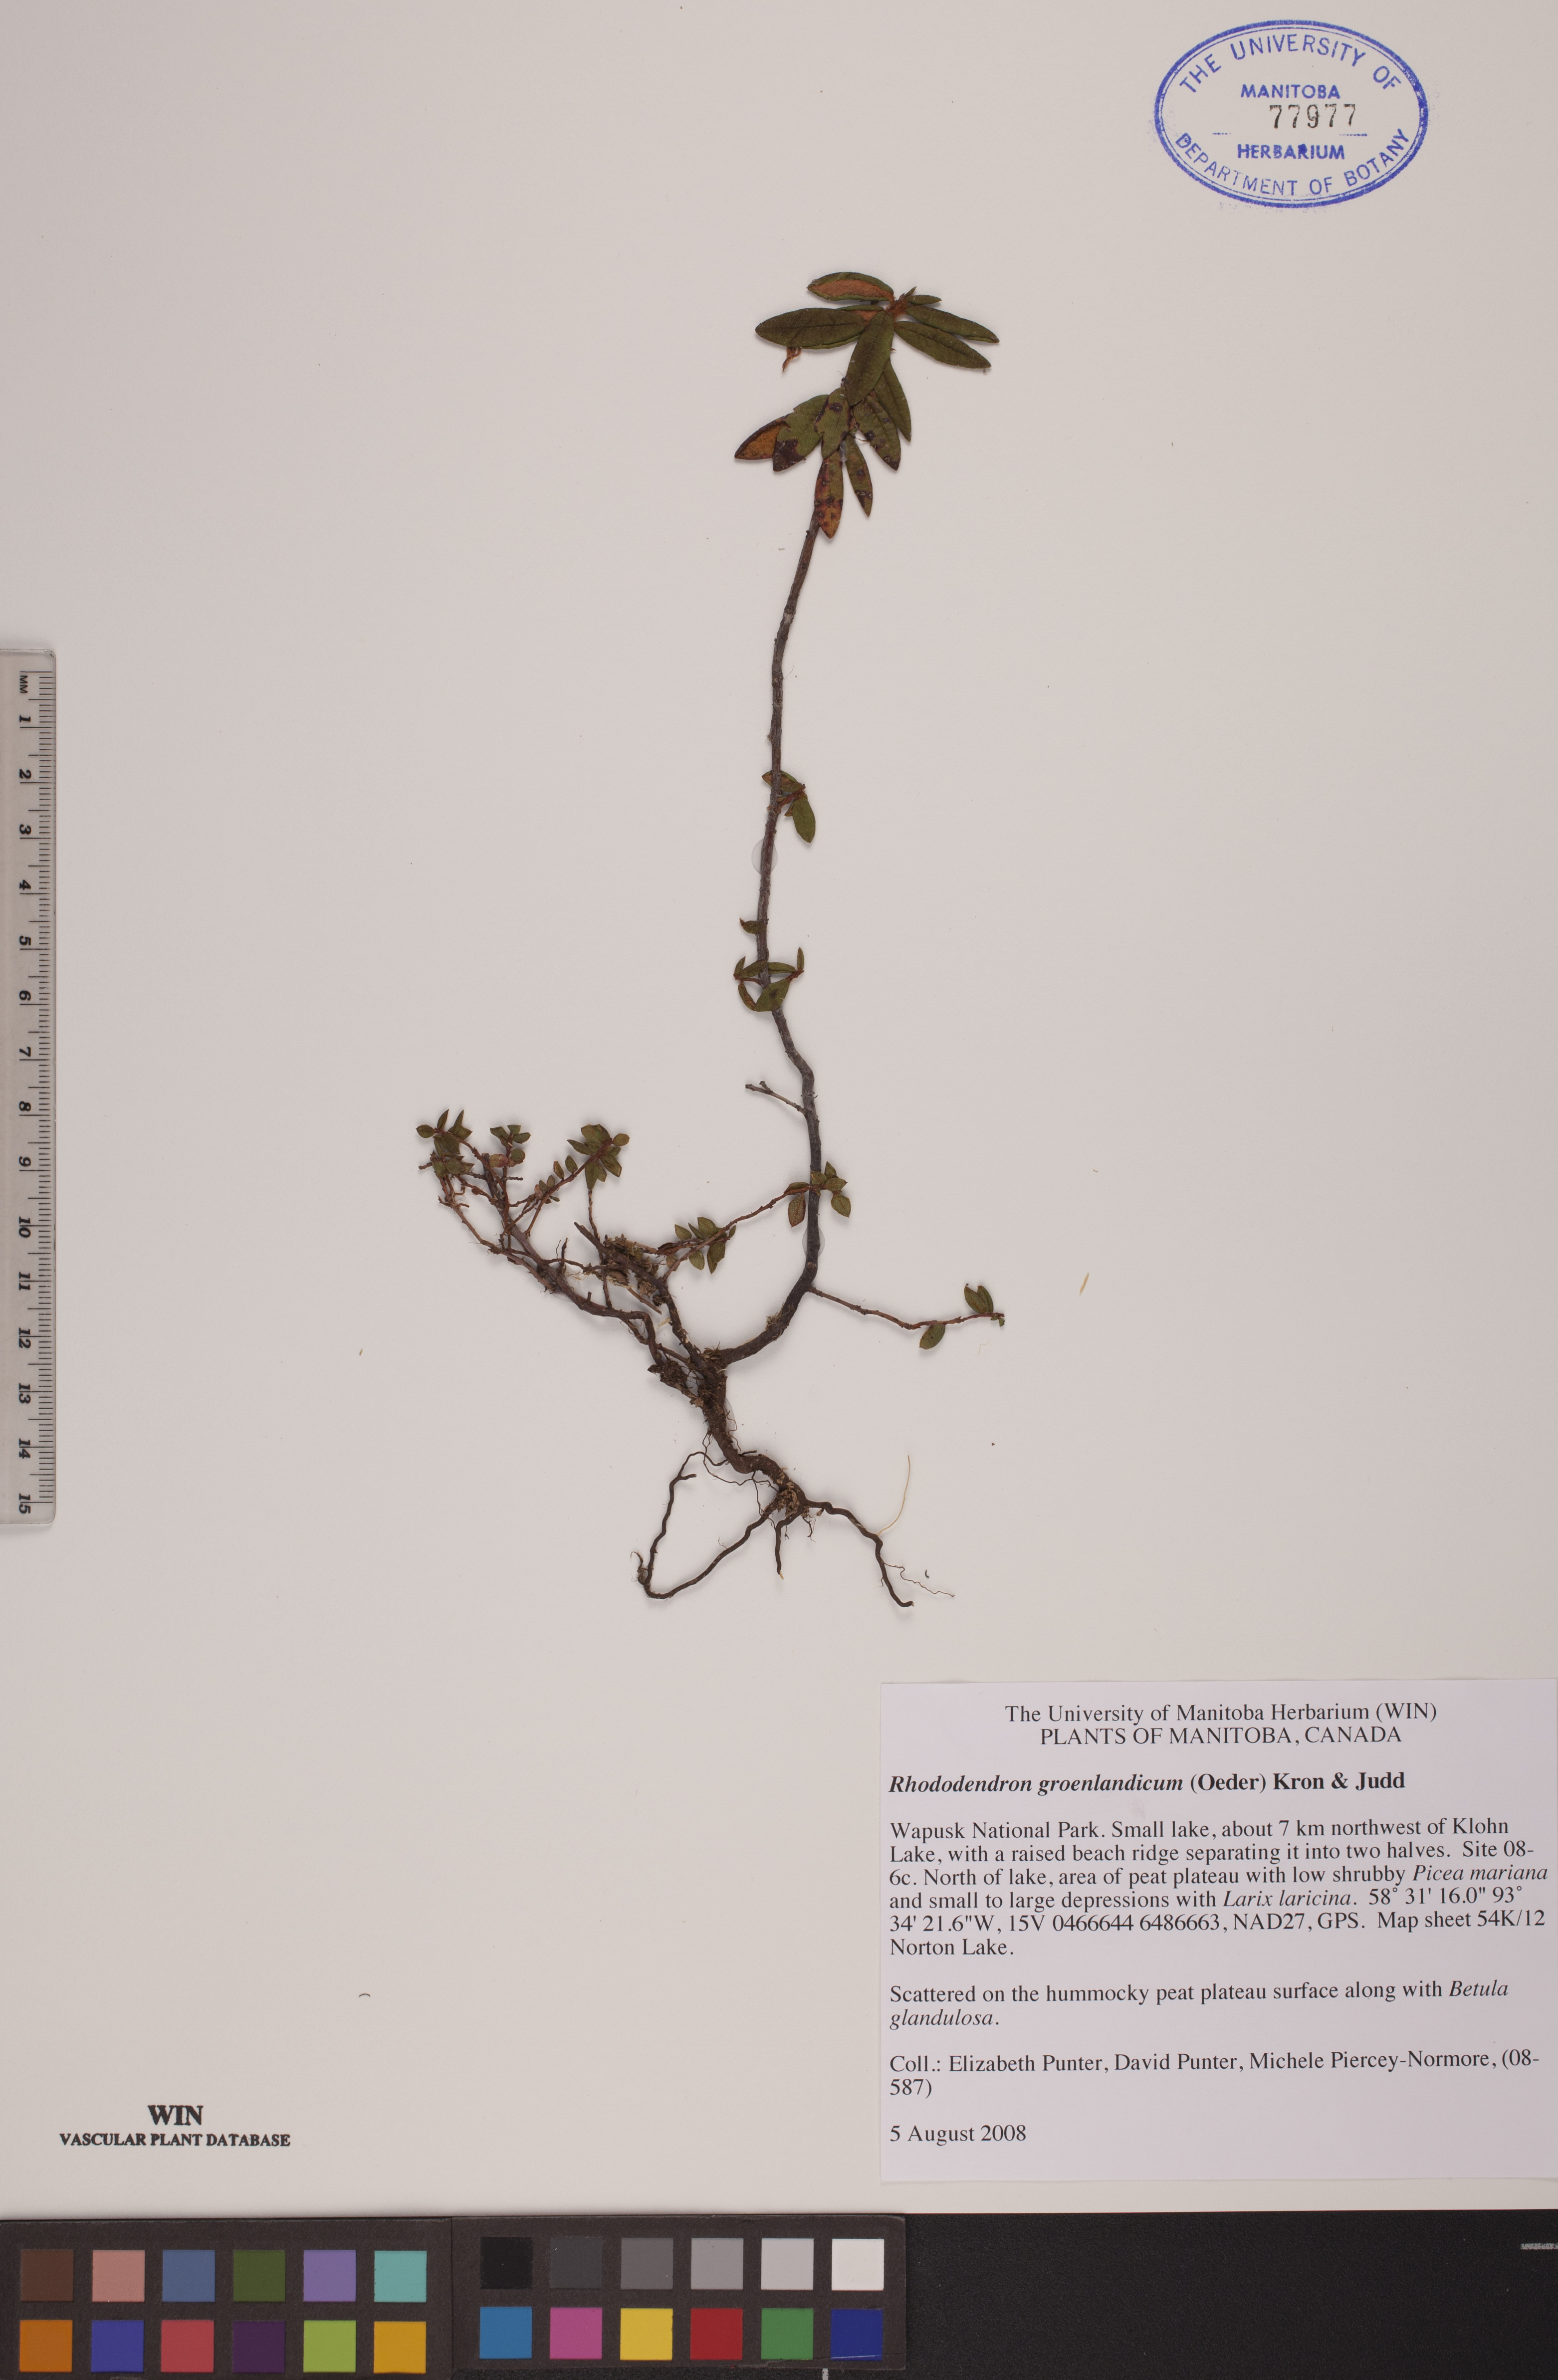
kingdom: Plantae
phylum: Tracheophyta
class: Magnoliopsida
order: Ericales
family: Ericaceae
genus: Rhododendron
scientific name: Rhododendron groenlandicum
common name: Bog labrador tea
